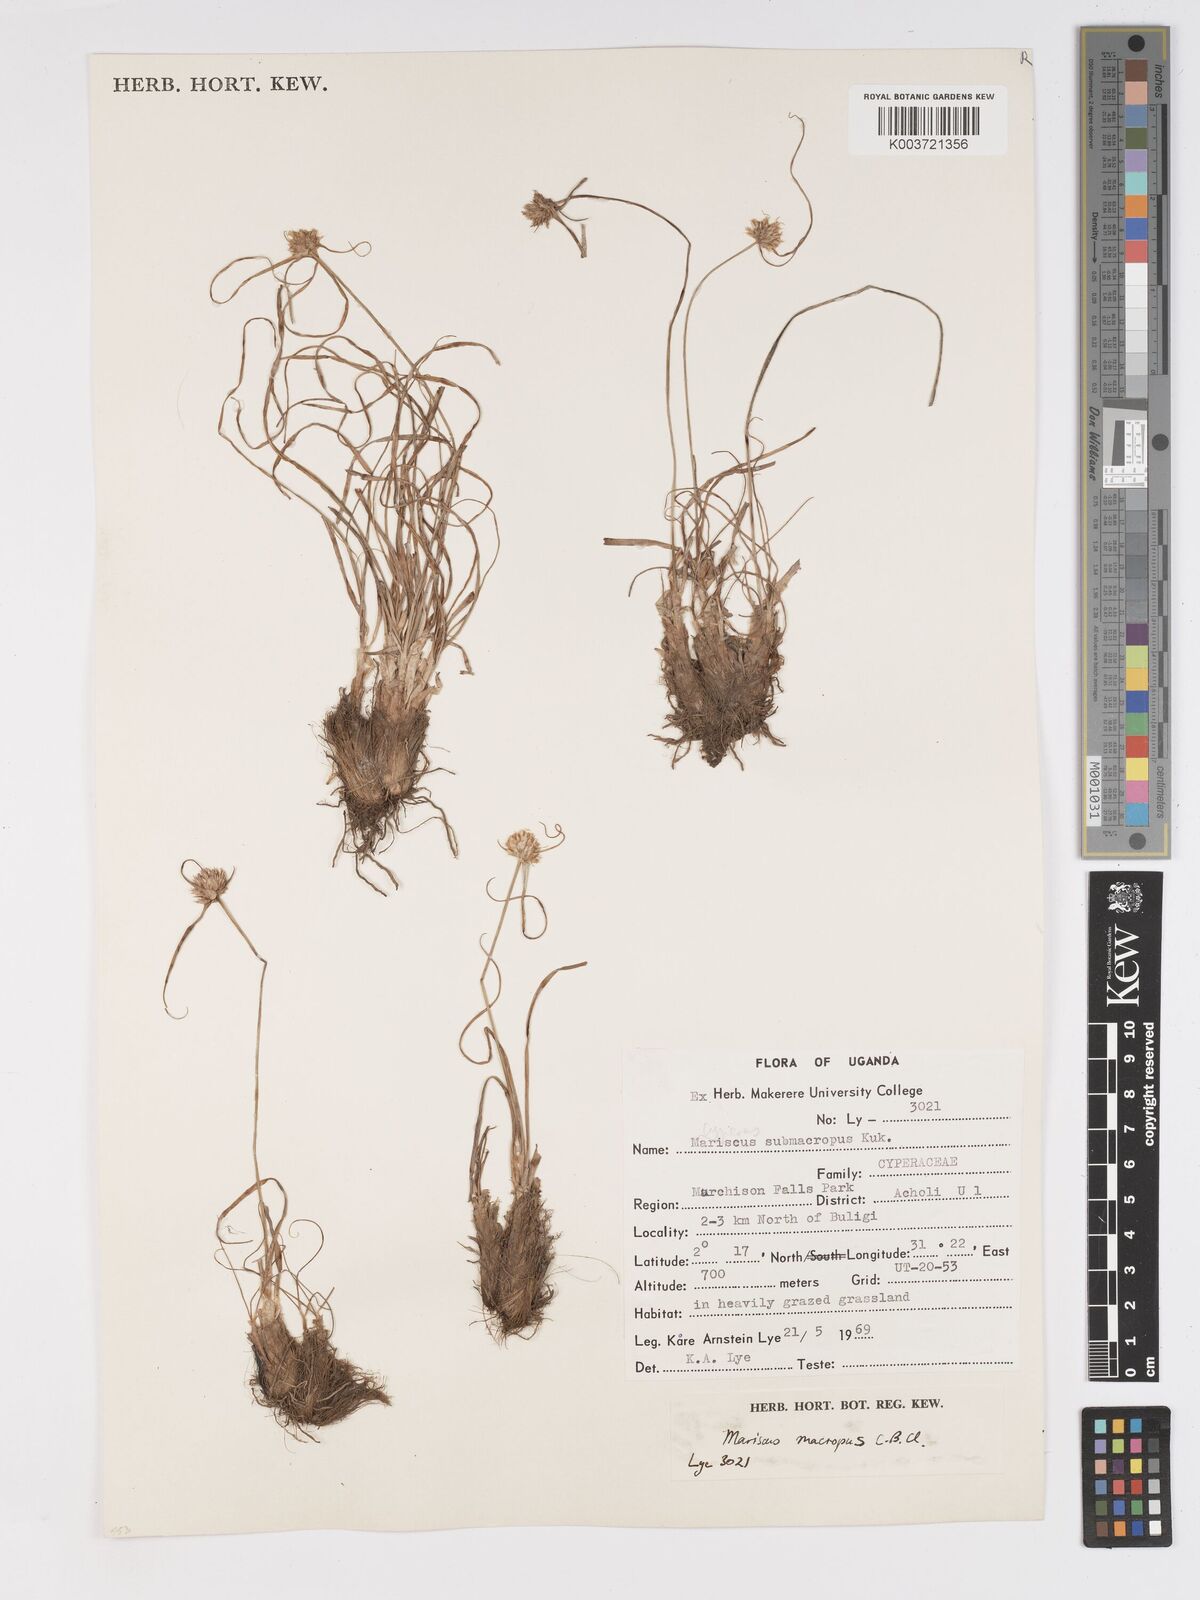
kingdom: Plantae
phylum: Tracheophyta
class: Liliopsida
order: Poales
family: Cyperaceae
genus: Cyperus
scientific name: Cyperus mollipes
